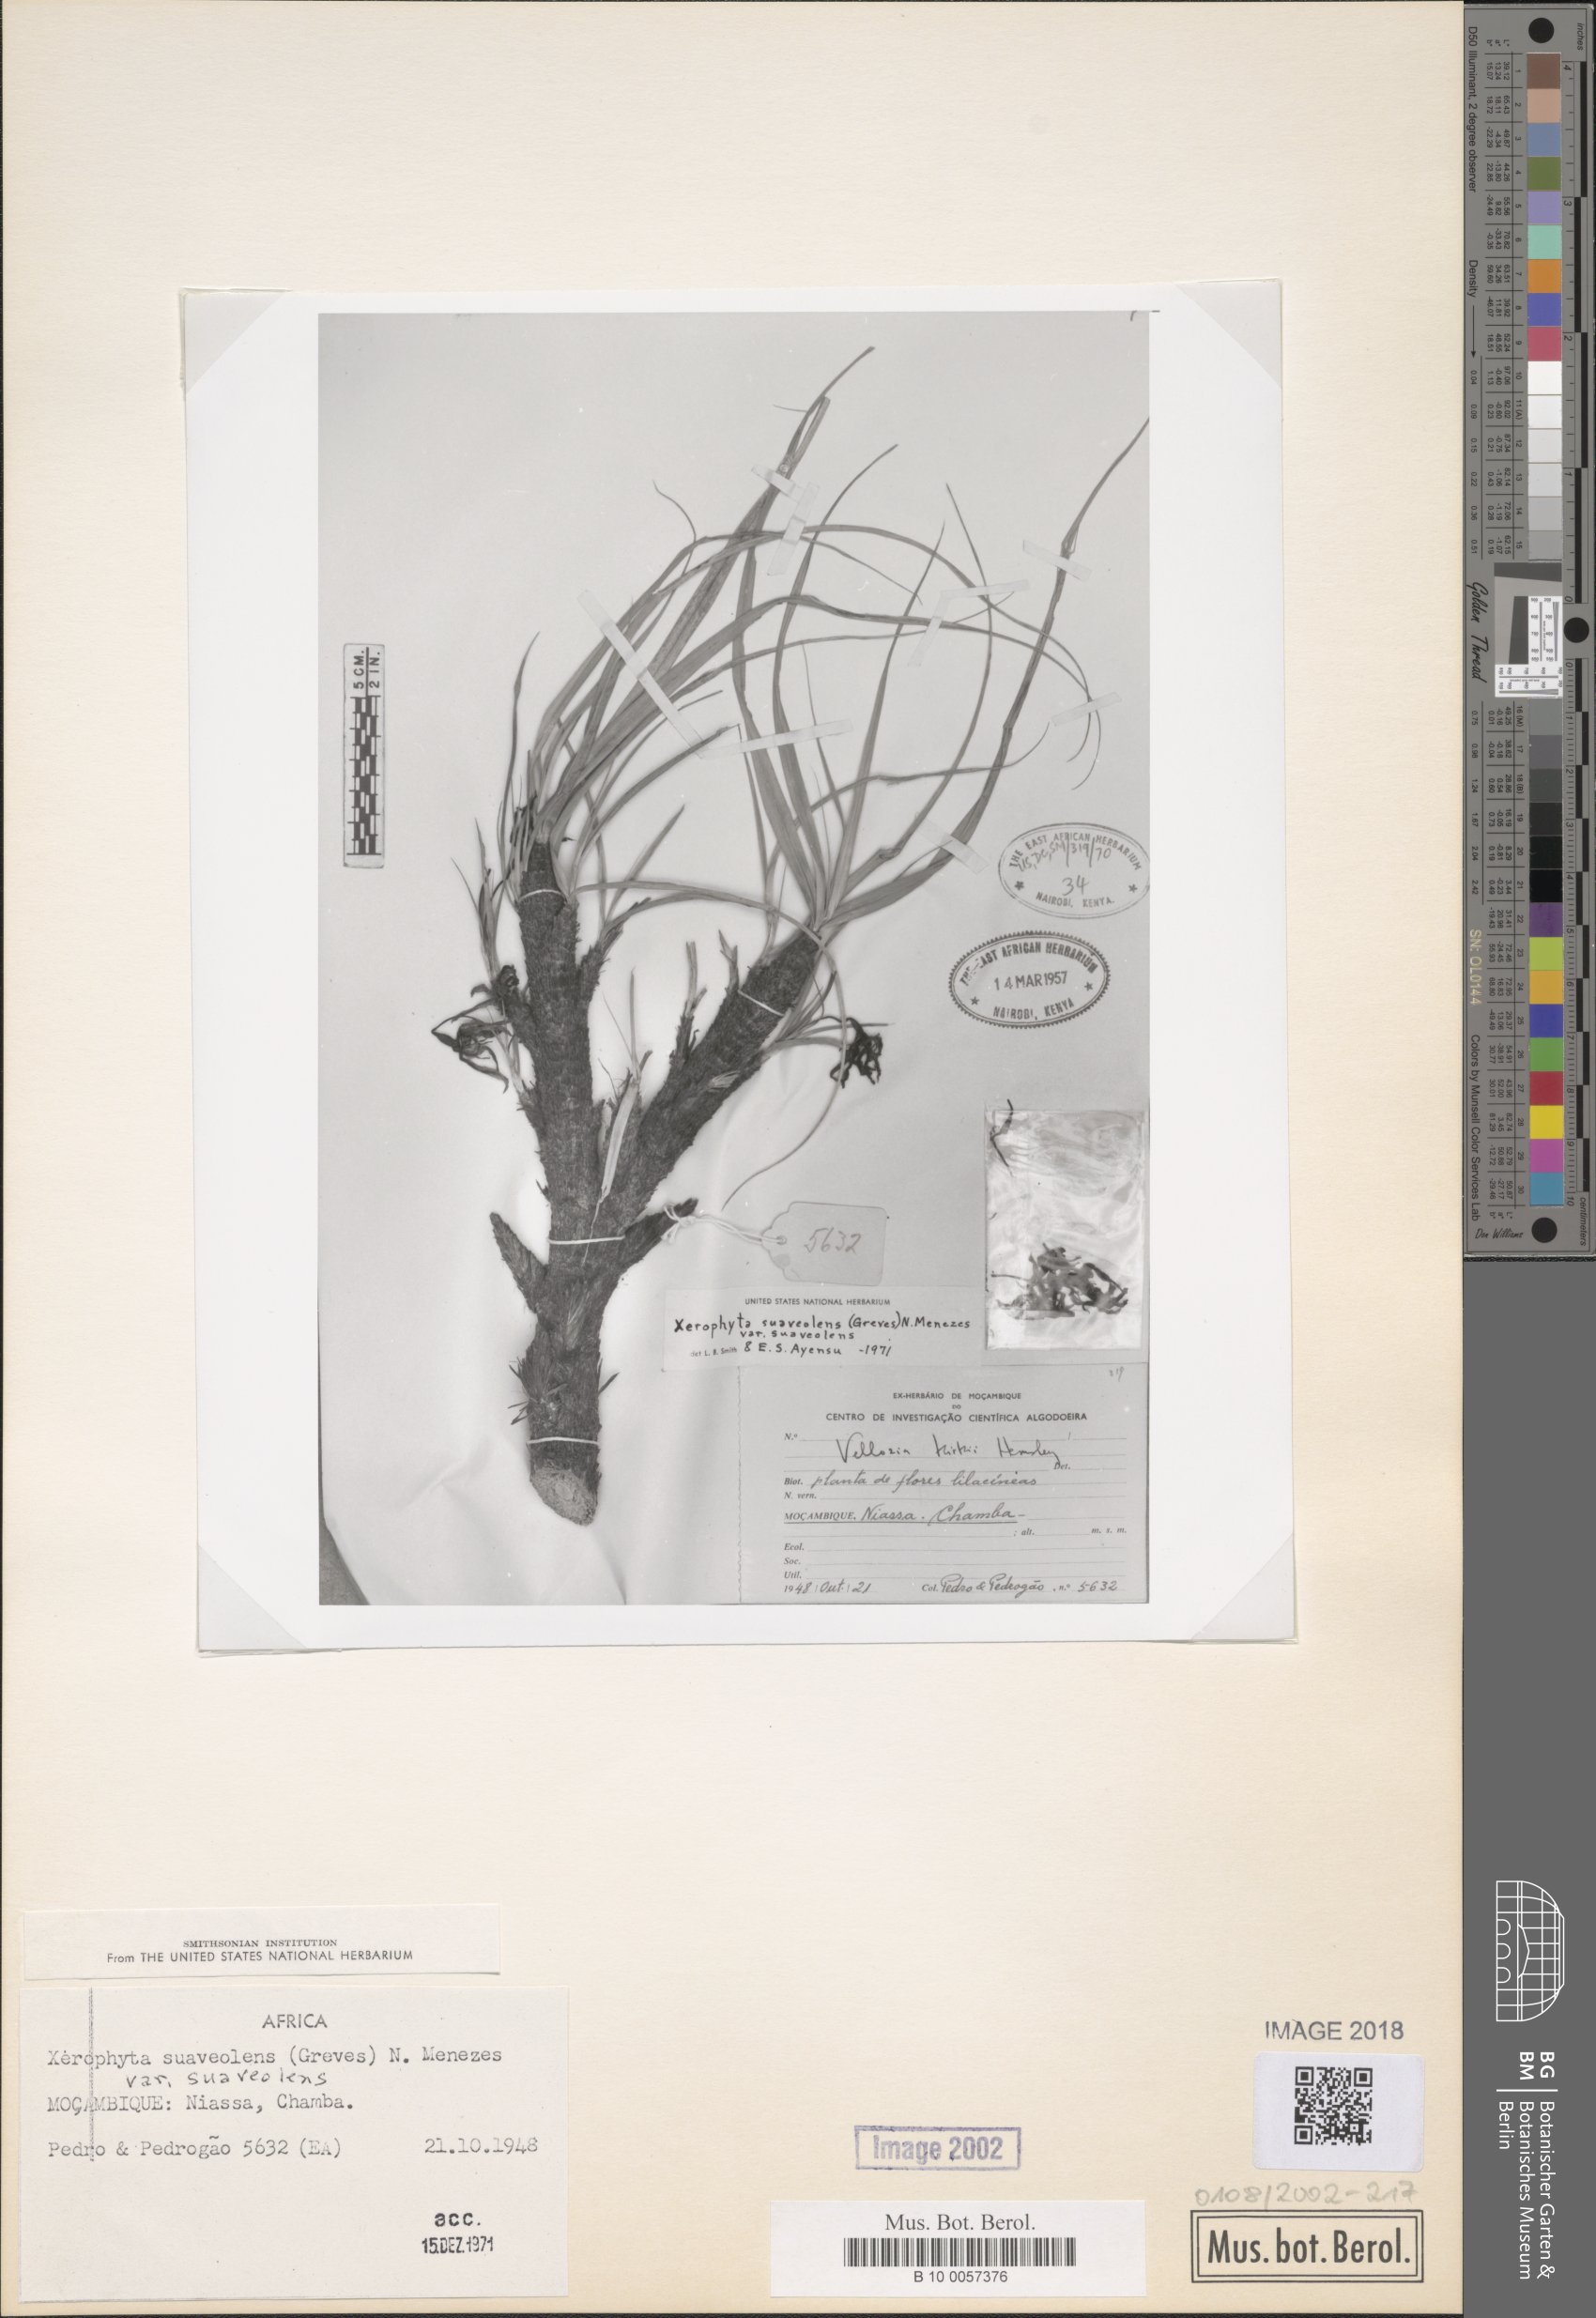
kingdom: Plantae
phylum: Tracheophyta
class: Liliopsida
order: Pandanales
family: Velloziaceae
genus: Xerophyta
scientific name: Xerophyta suaveolens
